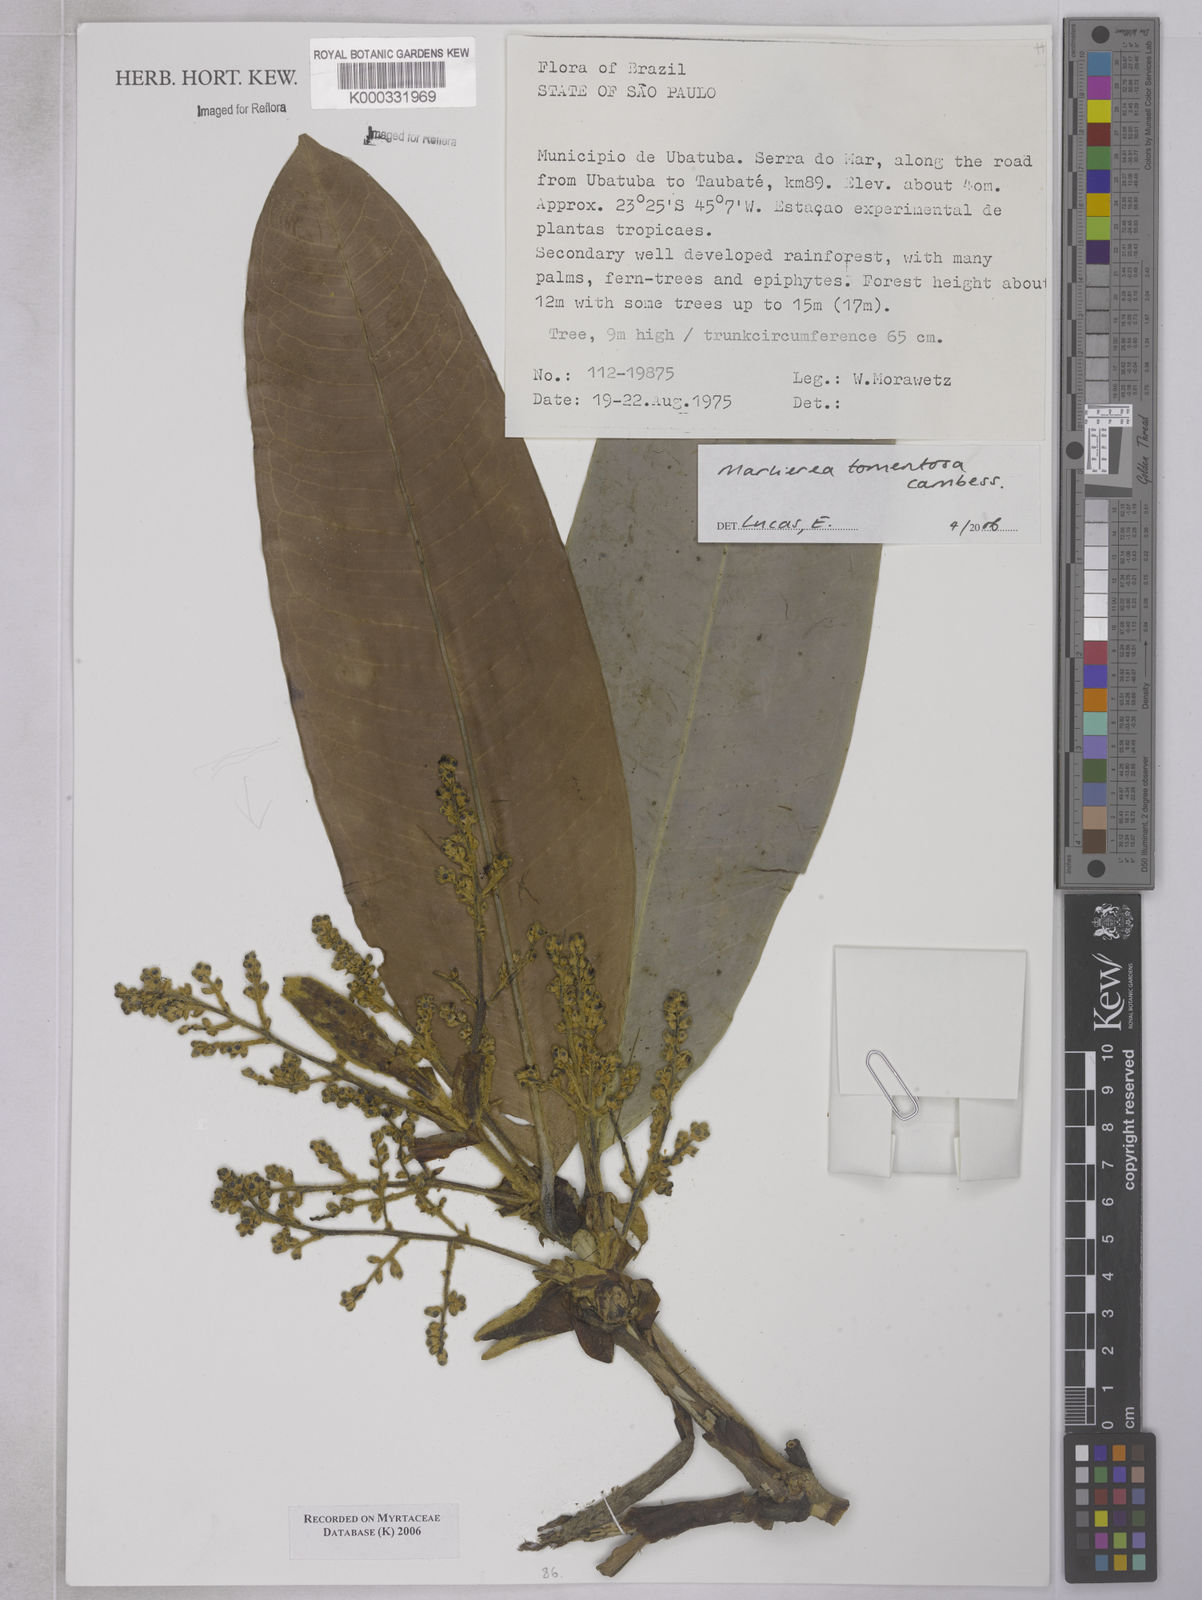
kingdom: Plantae
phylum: Tracheophyta
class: Magnoliopsida
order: Myrtales
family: Myrtaceae
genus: Myrcia
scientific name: Myrcia neotomentosa
